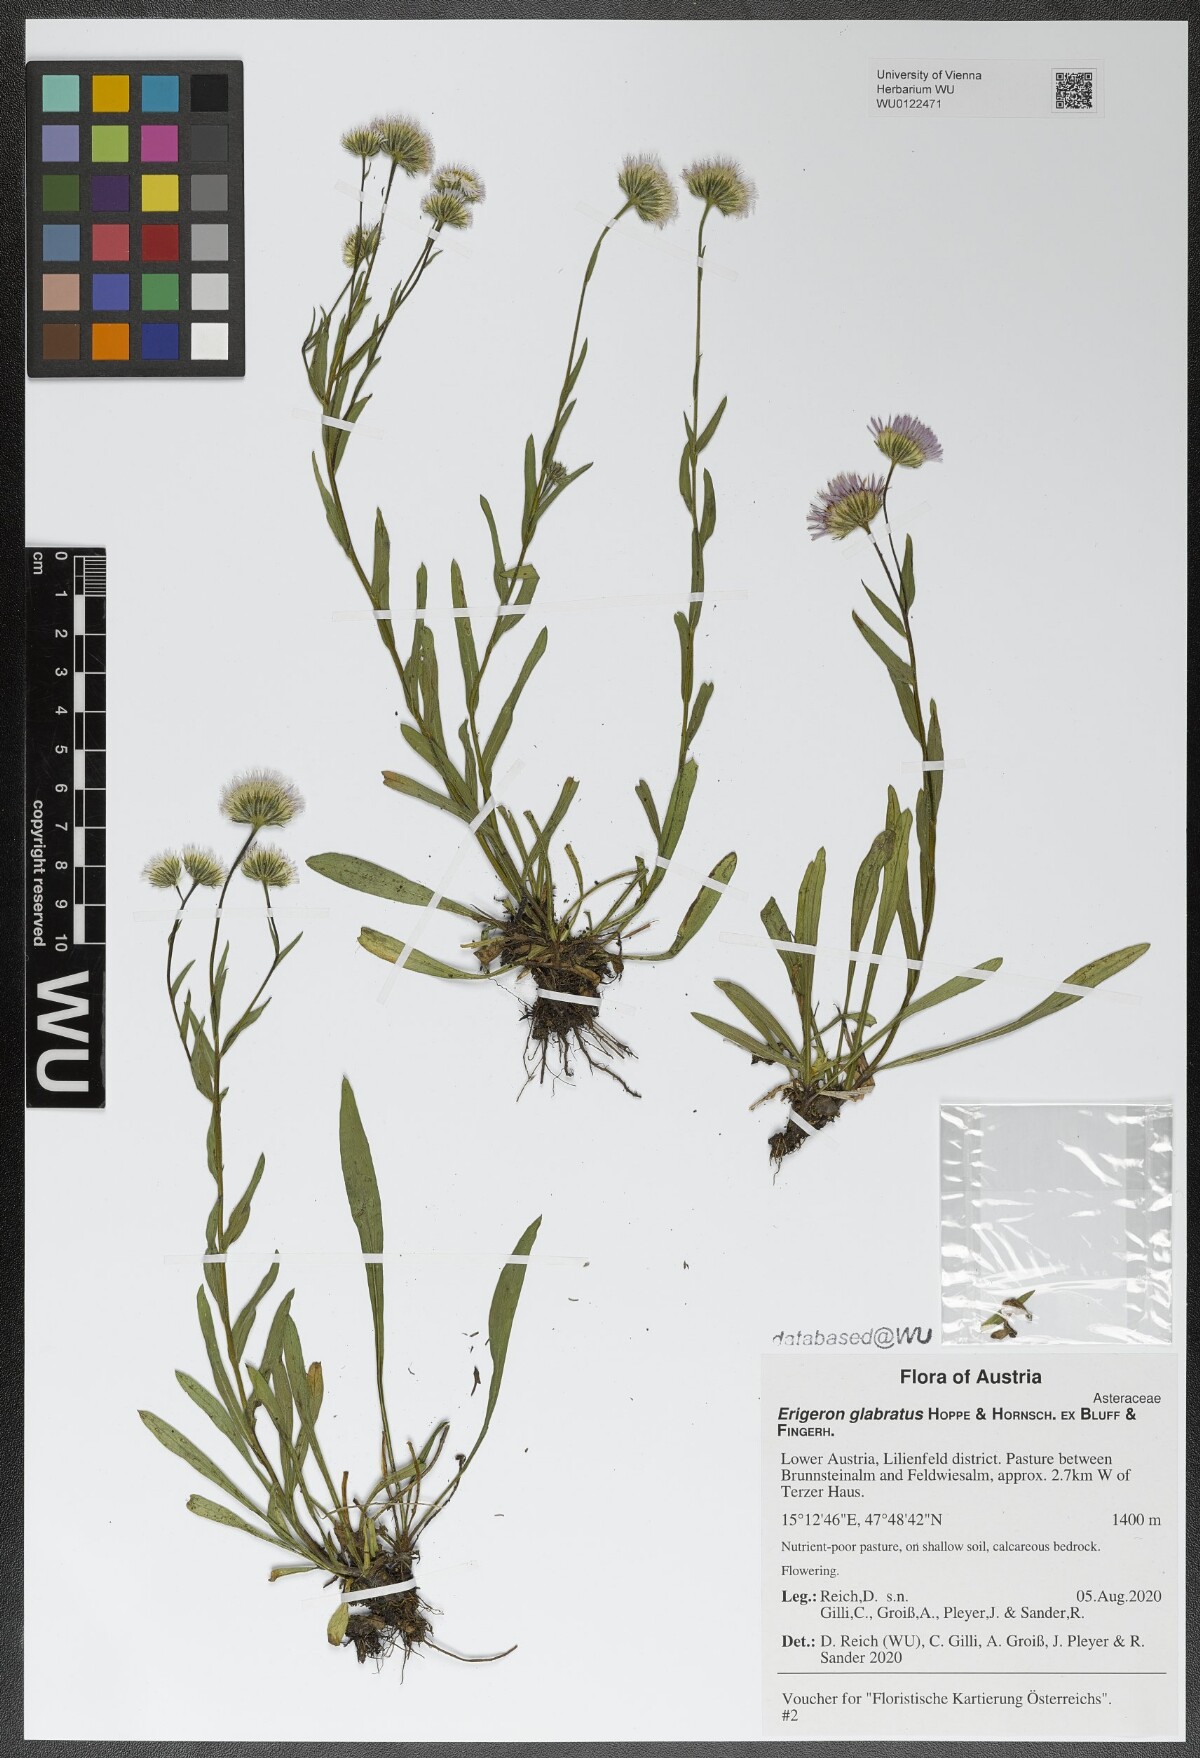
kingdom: Plantae
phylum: Tracheophyta
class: Magnoliopsida
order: Asterales
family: Asteraceae
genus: Erigeron
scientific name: Erigeron glabratus
